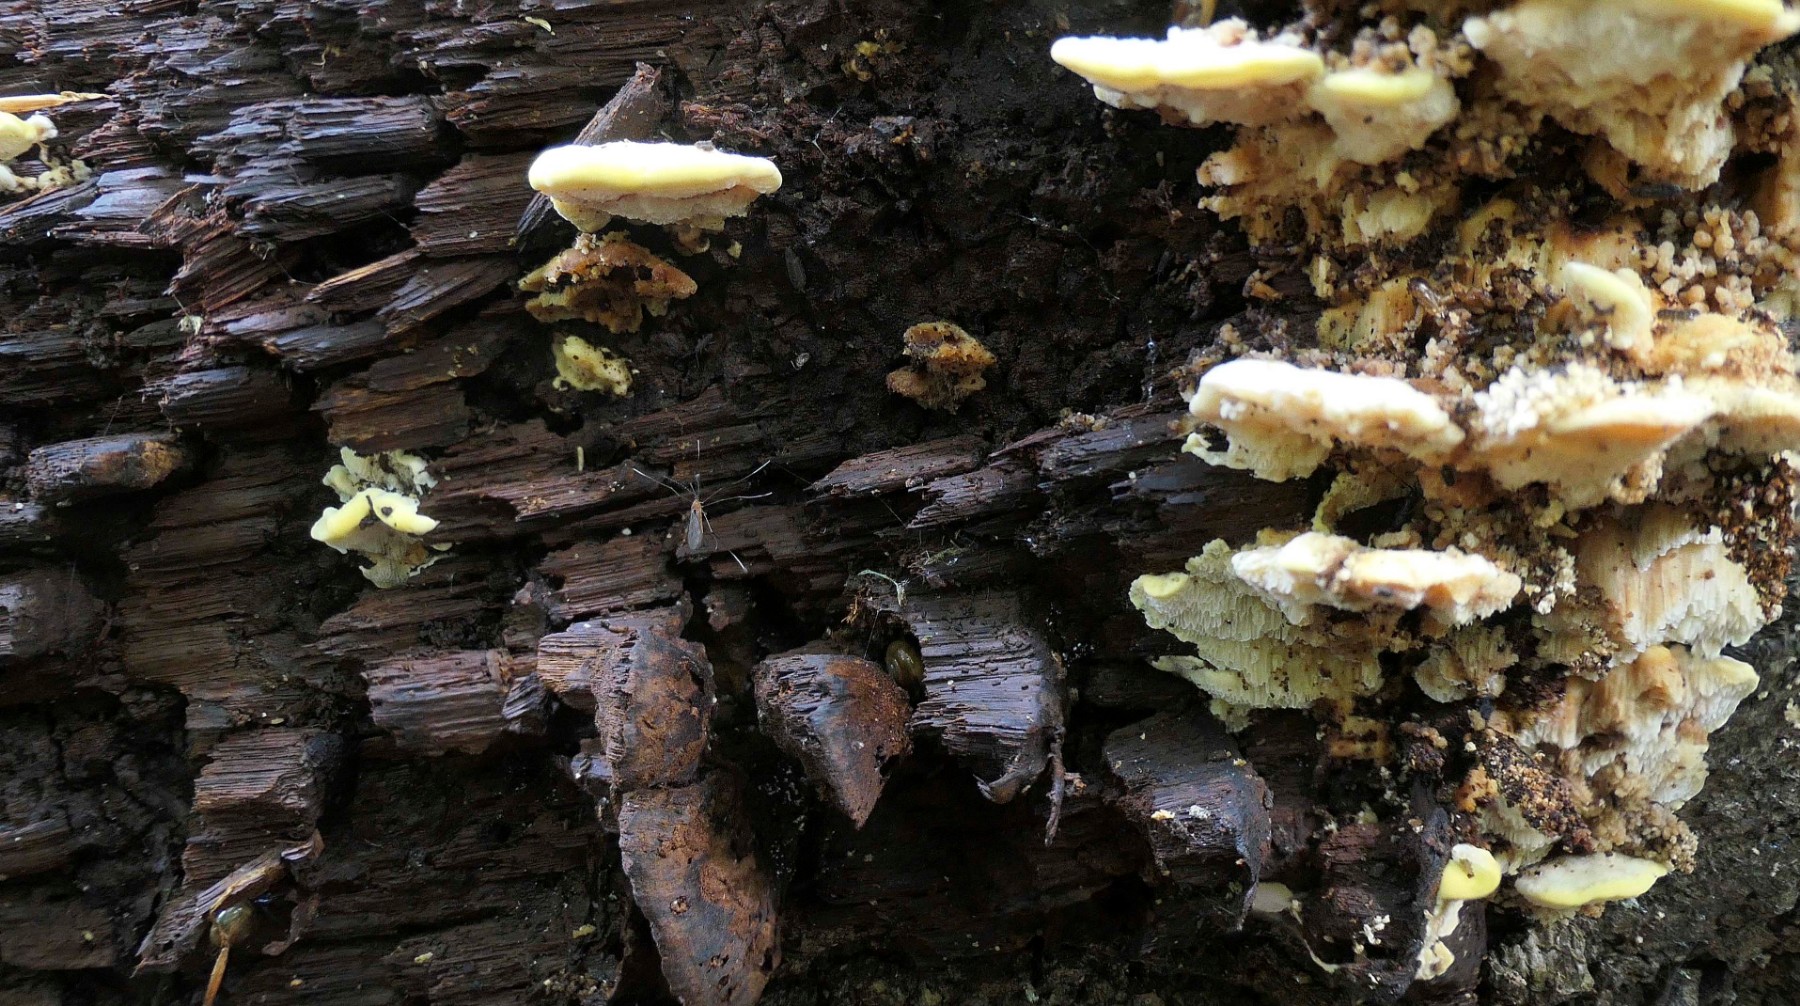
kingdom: Fungi
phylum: Basidiomycota
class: Agaricomycetes
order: Polyporales
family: Steccherinaceae
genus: Antrodiella
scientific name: Antrodiella serpula
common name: gulrandet elastikporesvamp
